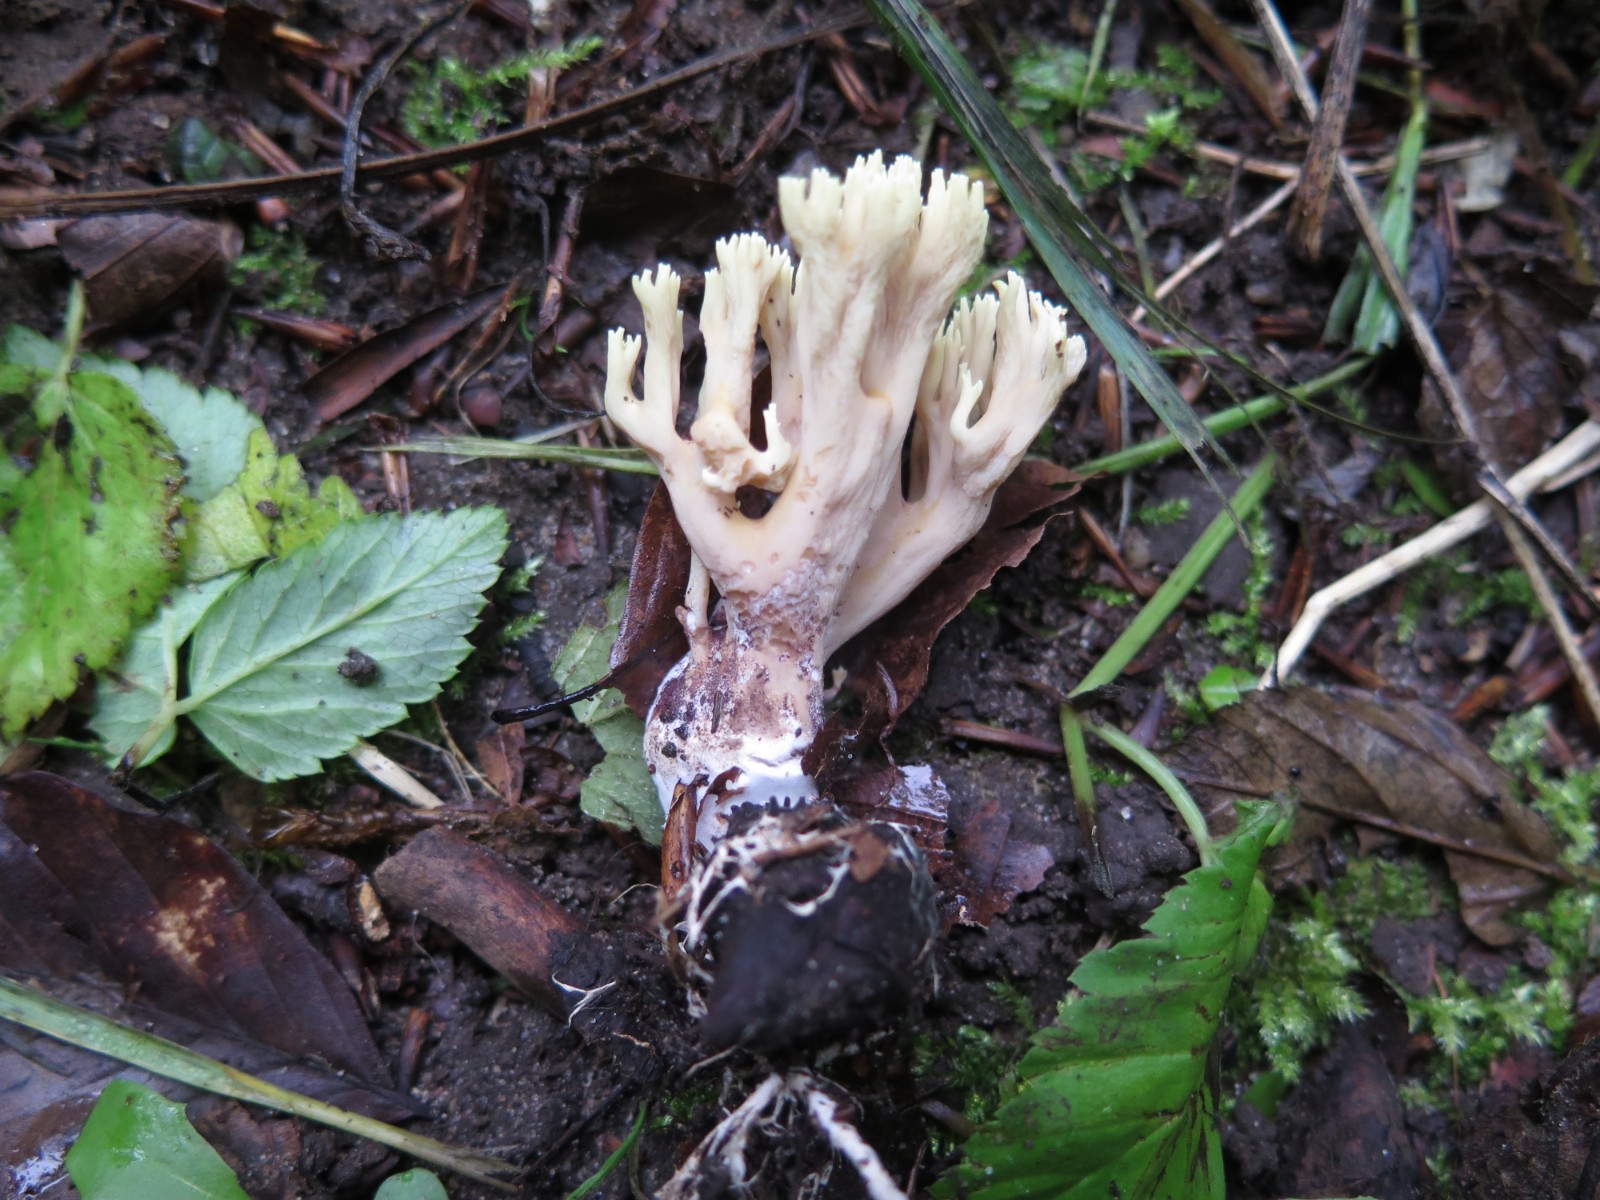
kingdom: Fungi
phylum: Basidiomycota
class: Agaricomycetes
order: Gomphales
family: Gomphaceae
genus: Ramaria
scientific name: Ramaria stricta
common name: rank koralsvamp
